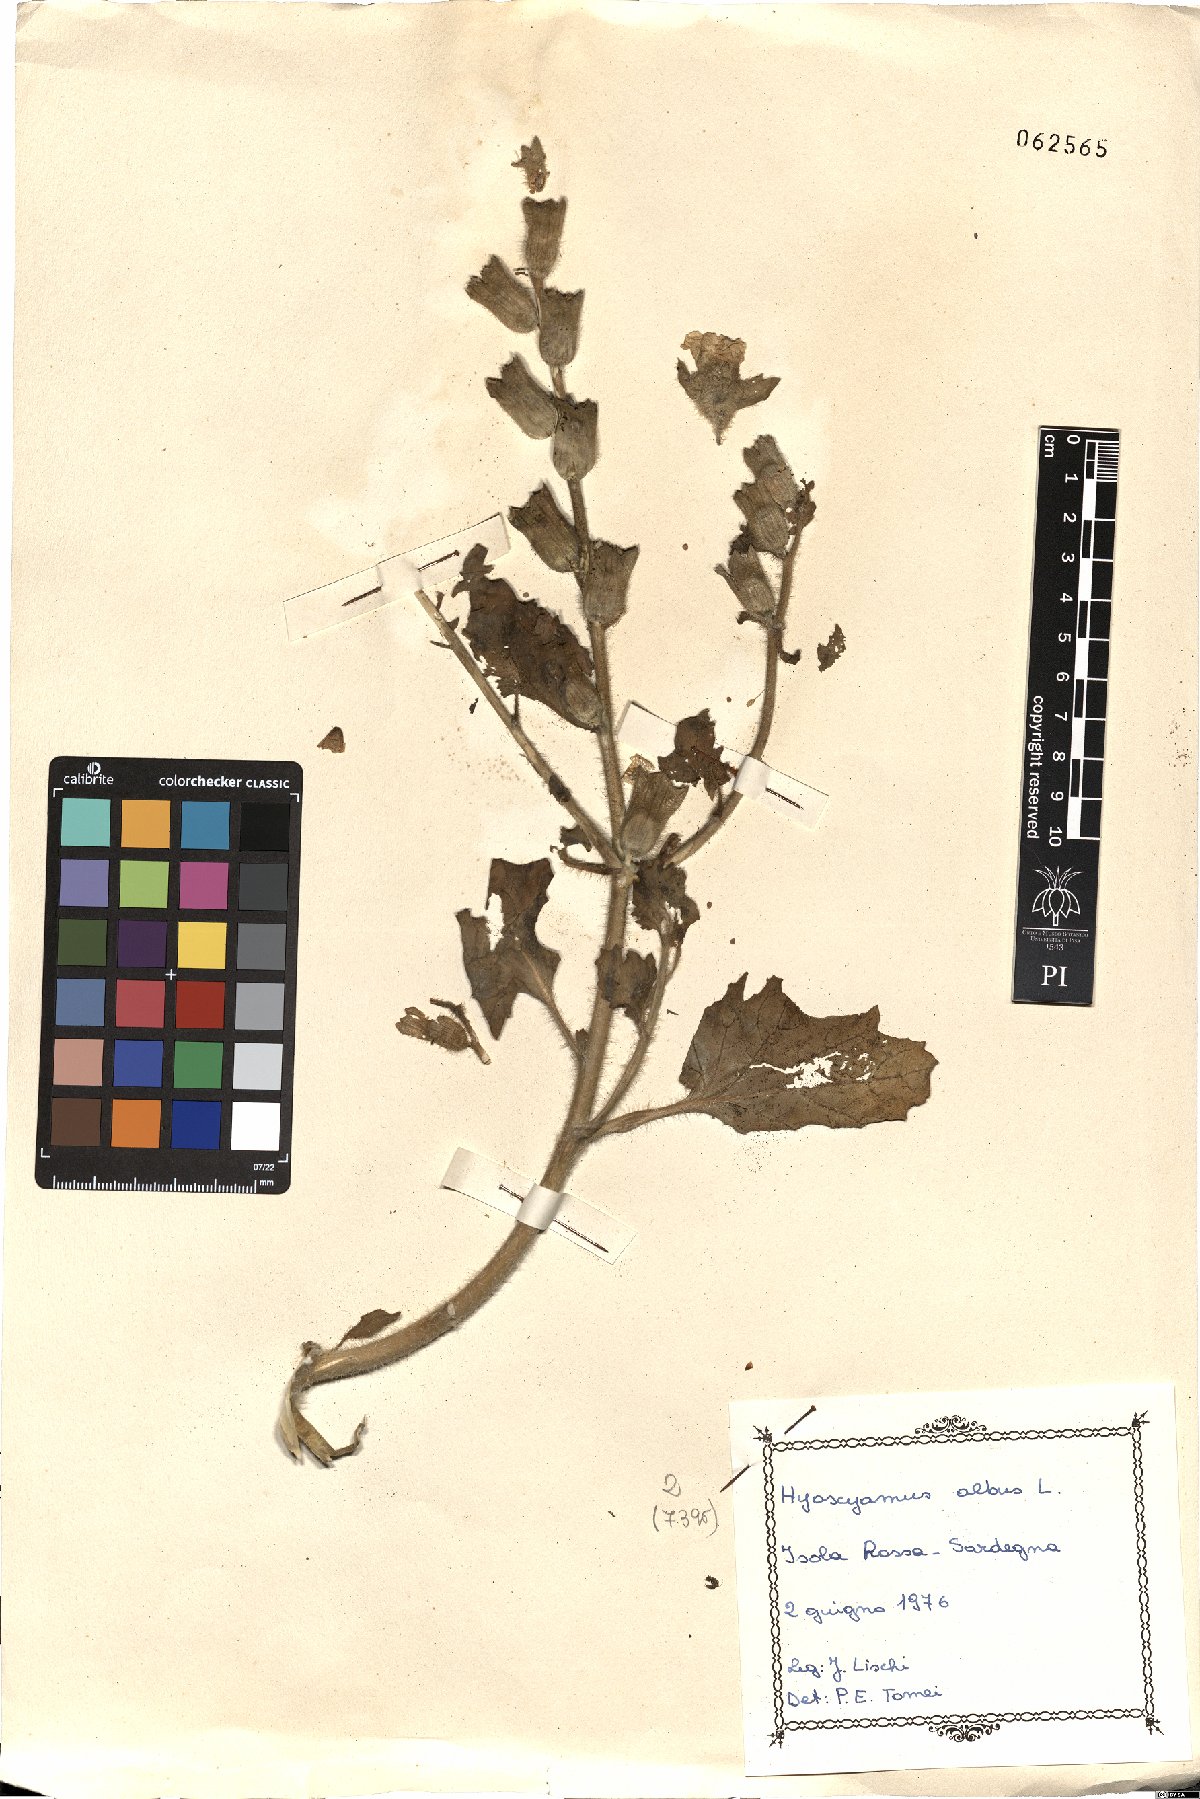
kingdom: Plantae
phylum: Tracheophyta
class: Magnoliopsida
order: Solanales
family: Solanaceae
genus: Hyoscyamus
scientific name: Hyoscyamus albus
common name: White henbane
